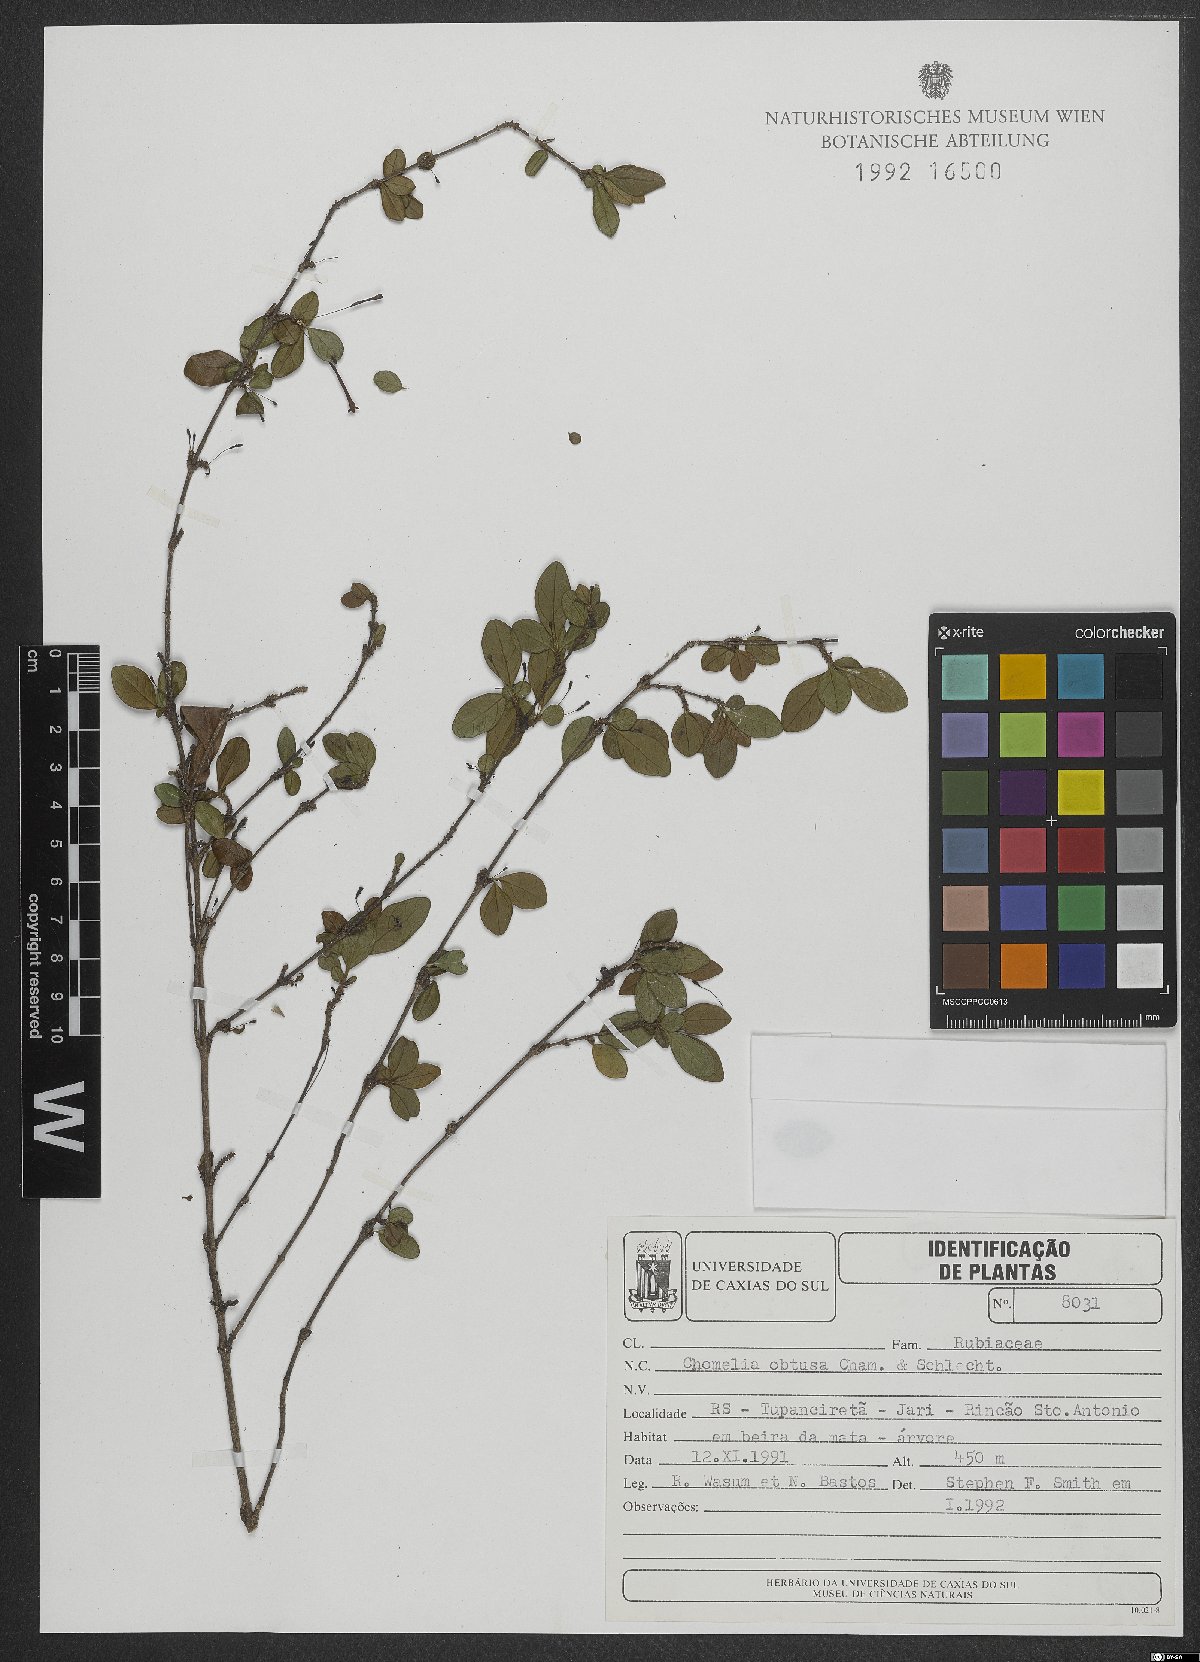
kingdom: Plantae
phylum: Tracheophyta
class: Magnoliopsida
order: Gentianales
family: Rubiaceae
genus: Chomelia
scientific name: Chomelia obtusa
